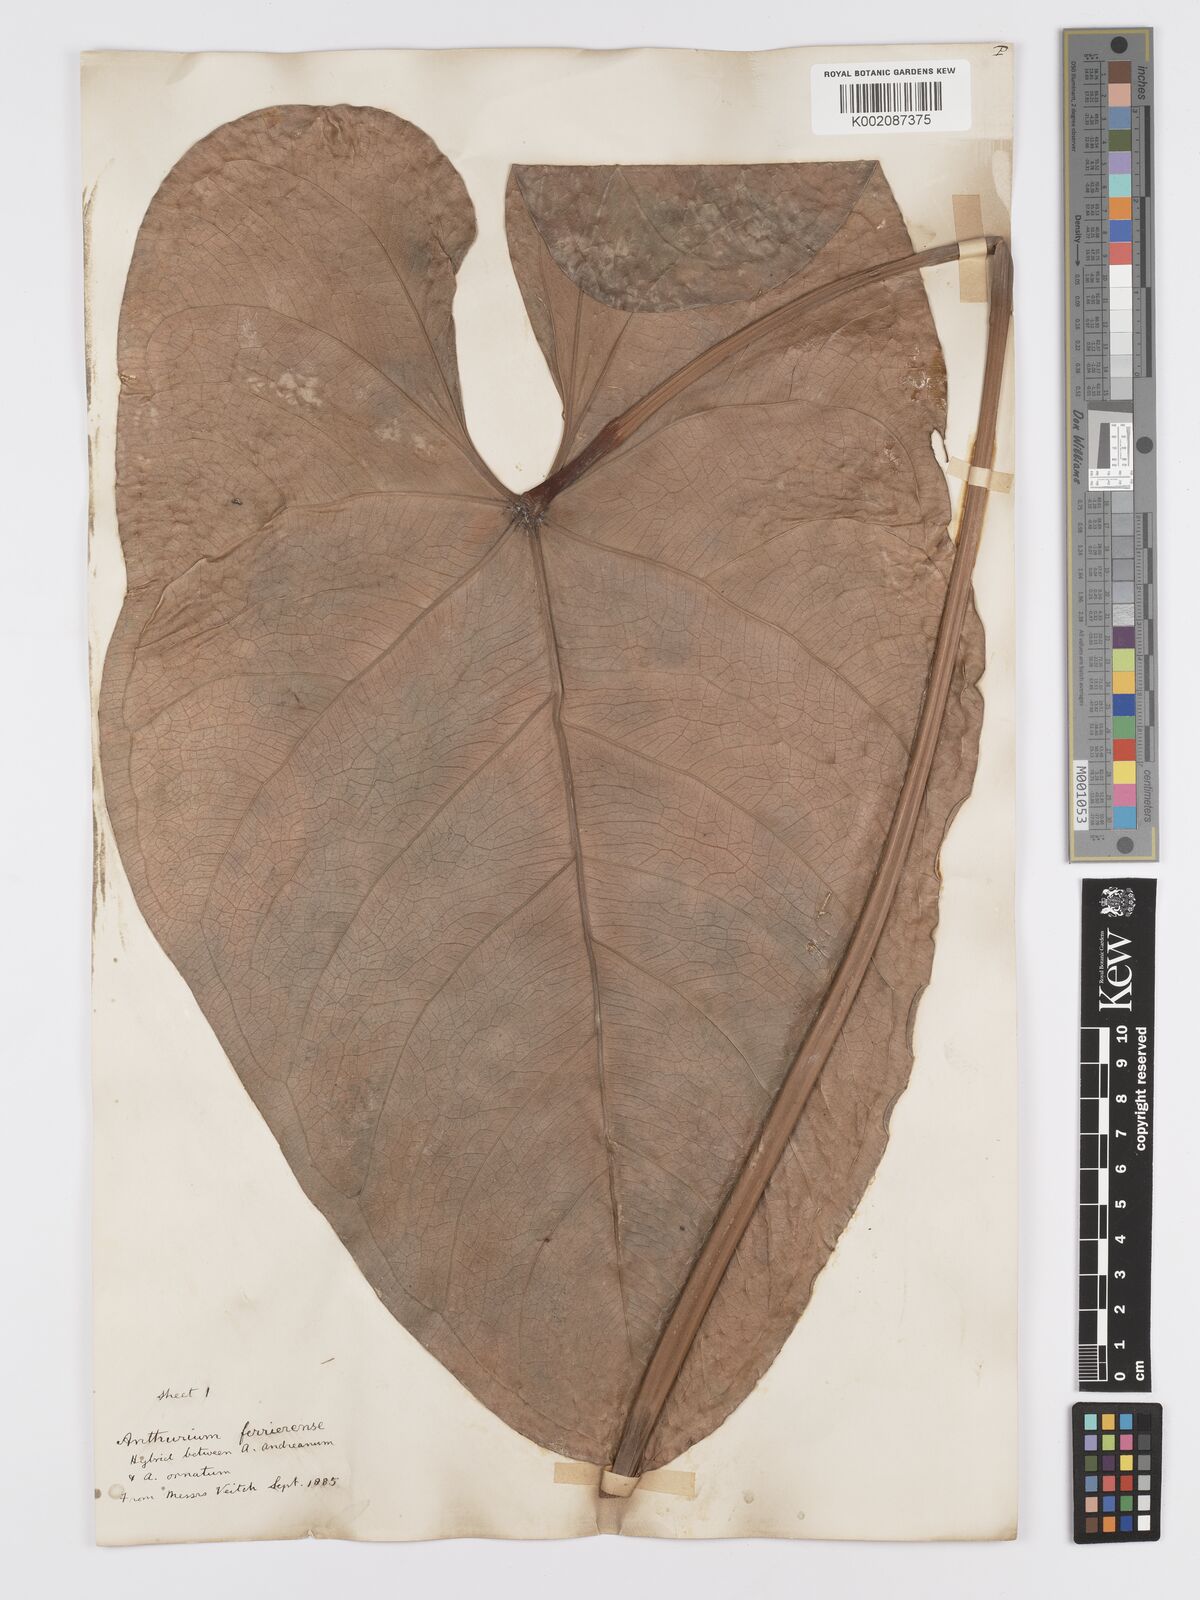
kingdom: Plantae
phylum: Tracheophyta
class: Liliopsida
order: Alismatales
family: Araceae
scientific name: Araceae
